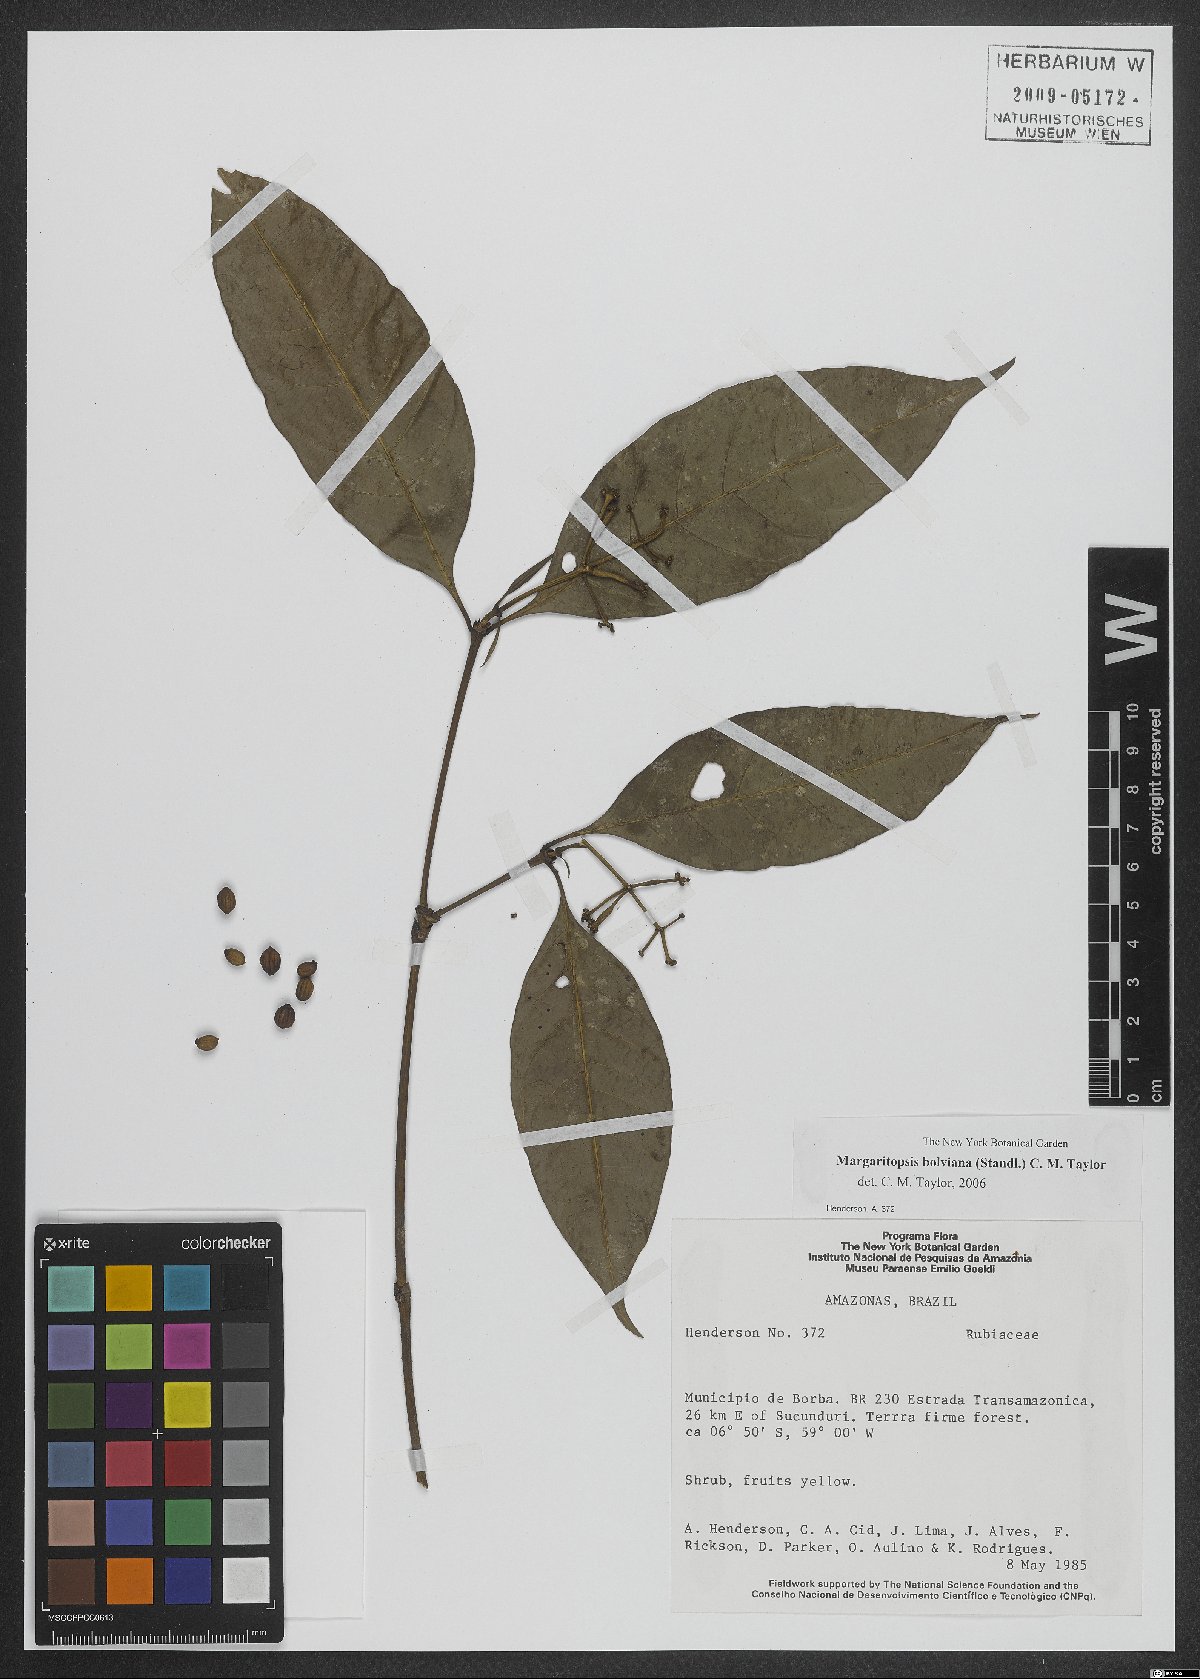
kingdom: Plantae
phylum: Tracheophyta
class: Magnoliopsida
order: Gentianales
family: Rubiaceae
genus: Eumachia
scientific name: Eumachia boliviana
